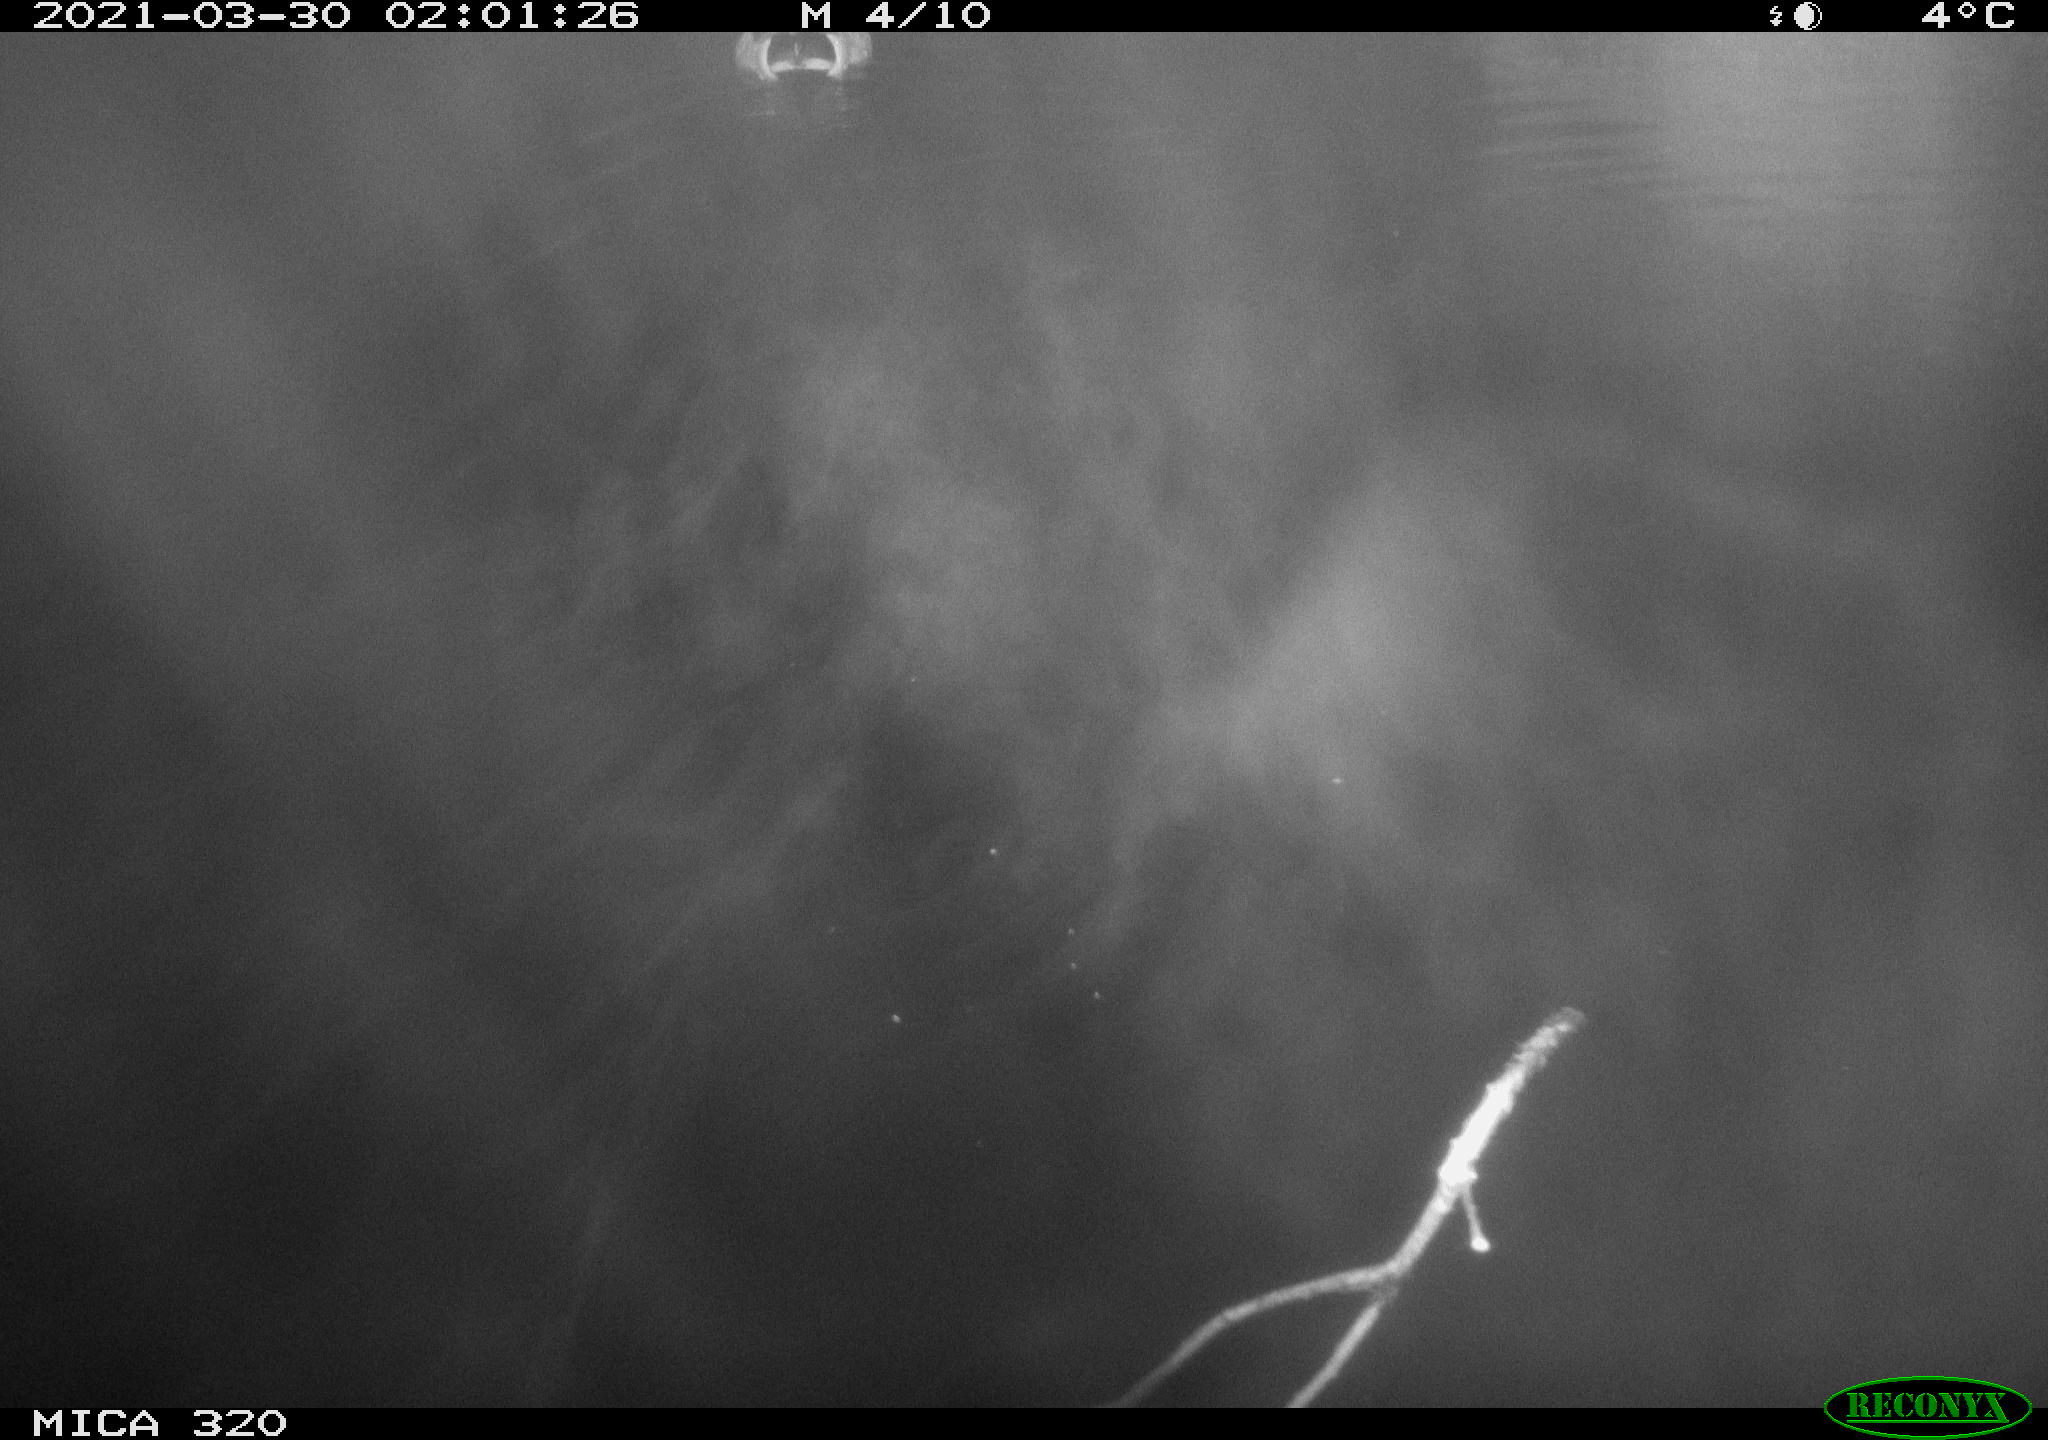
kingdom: Animalia
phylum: Chordata
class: Aves
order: Anseriformes
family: Anatidae
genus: Anas
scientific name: Anas platyrhynchos
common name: Mallard
